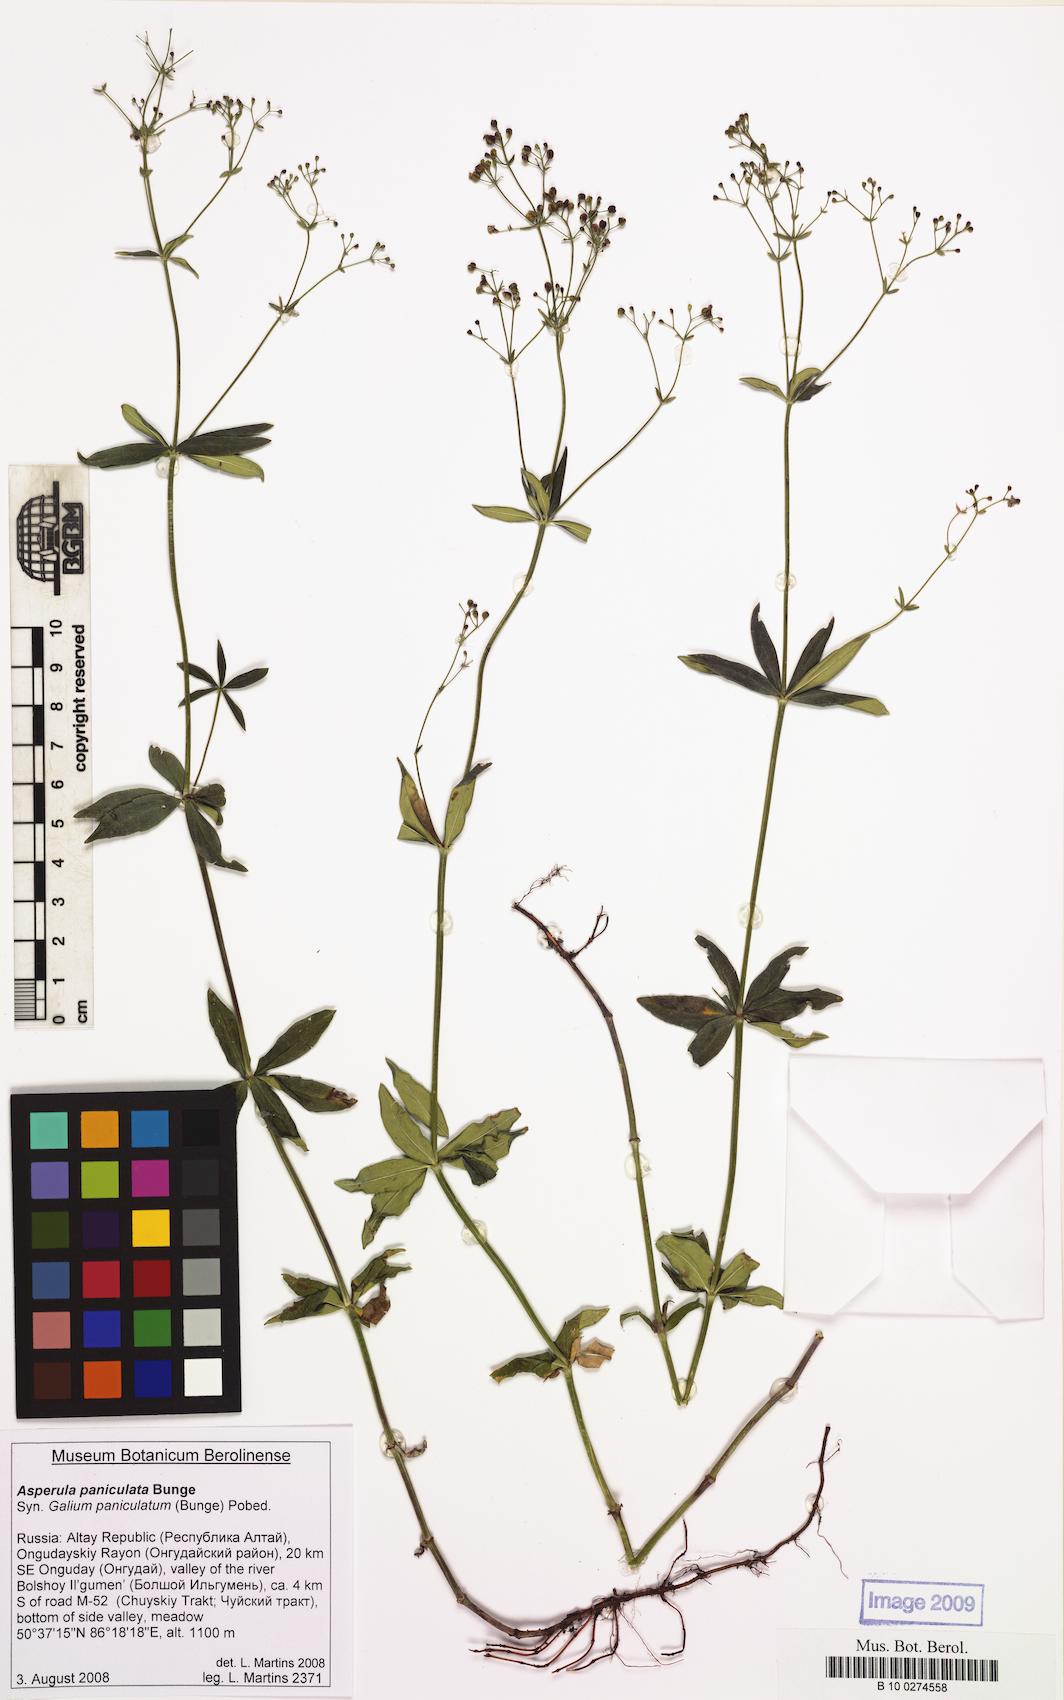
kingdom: Plantae
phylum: Tracheophyta
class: Magnoliopsida
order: Gentianales
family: Rubiaceae
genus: Galium
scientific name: Galium paniculatum
